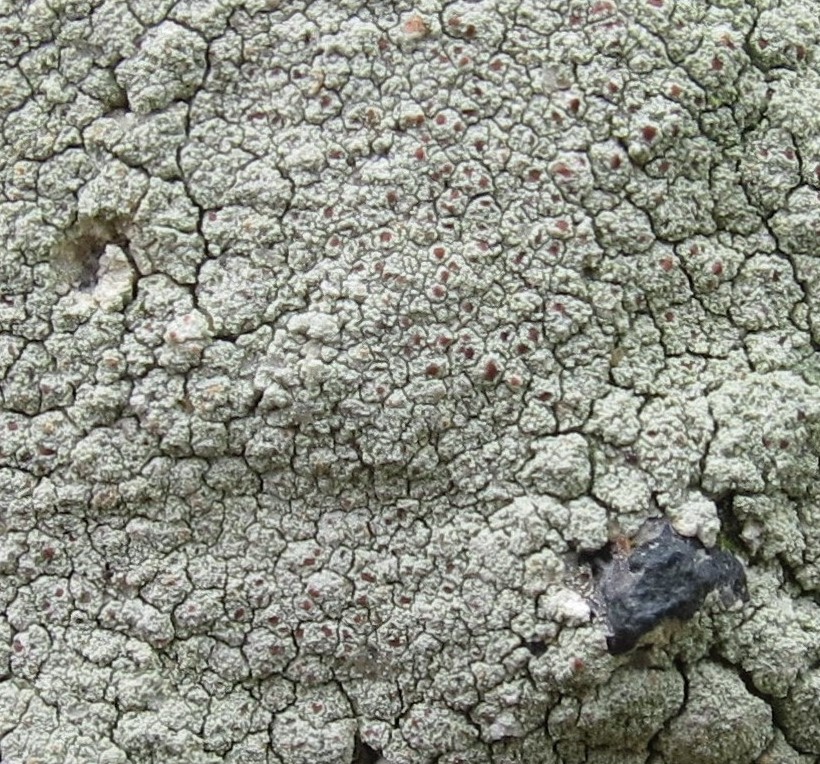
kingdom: Fungi
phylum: Ascomycota
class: Lecanoromycetes
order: Lecanorales
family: Haematommataceae
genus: Haematomma
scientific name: Haematomma ochroleucum
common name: gul trådkantlav
